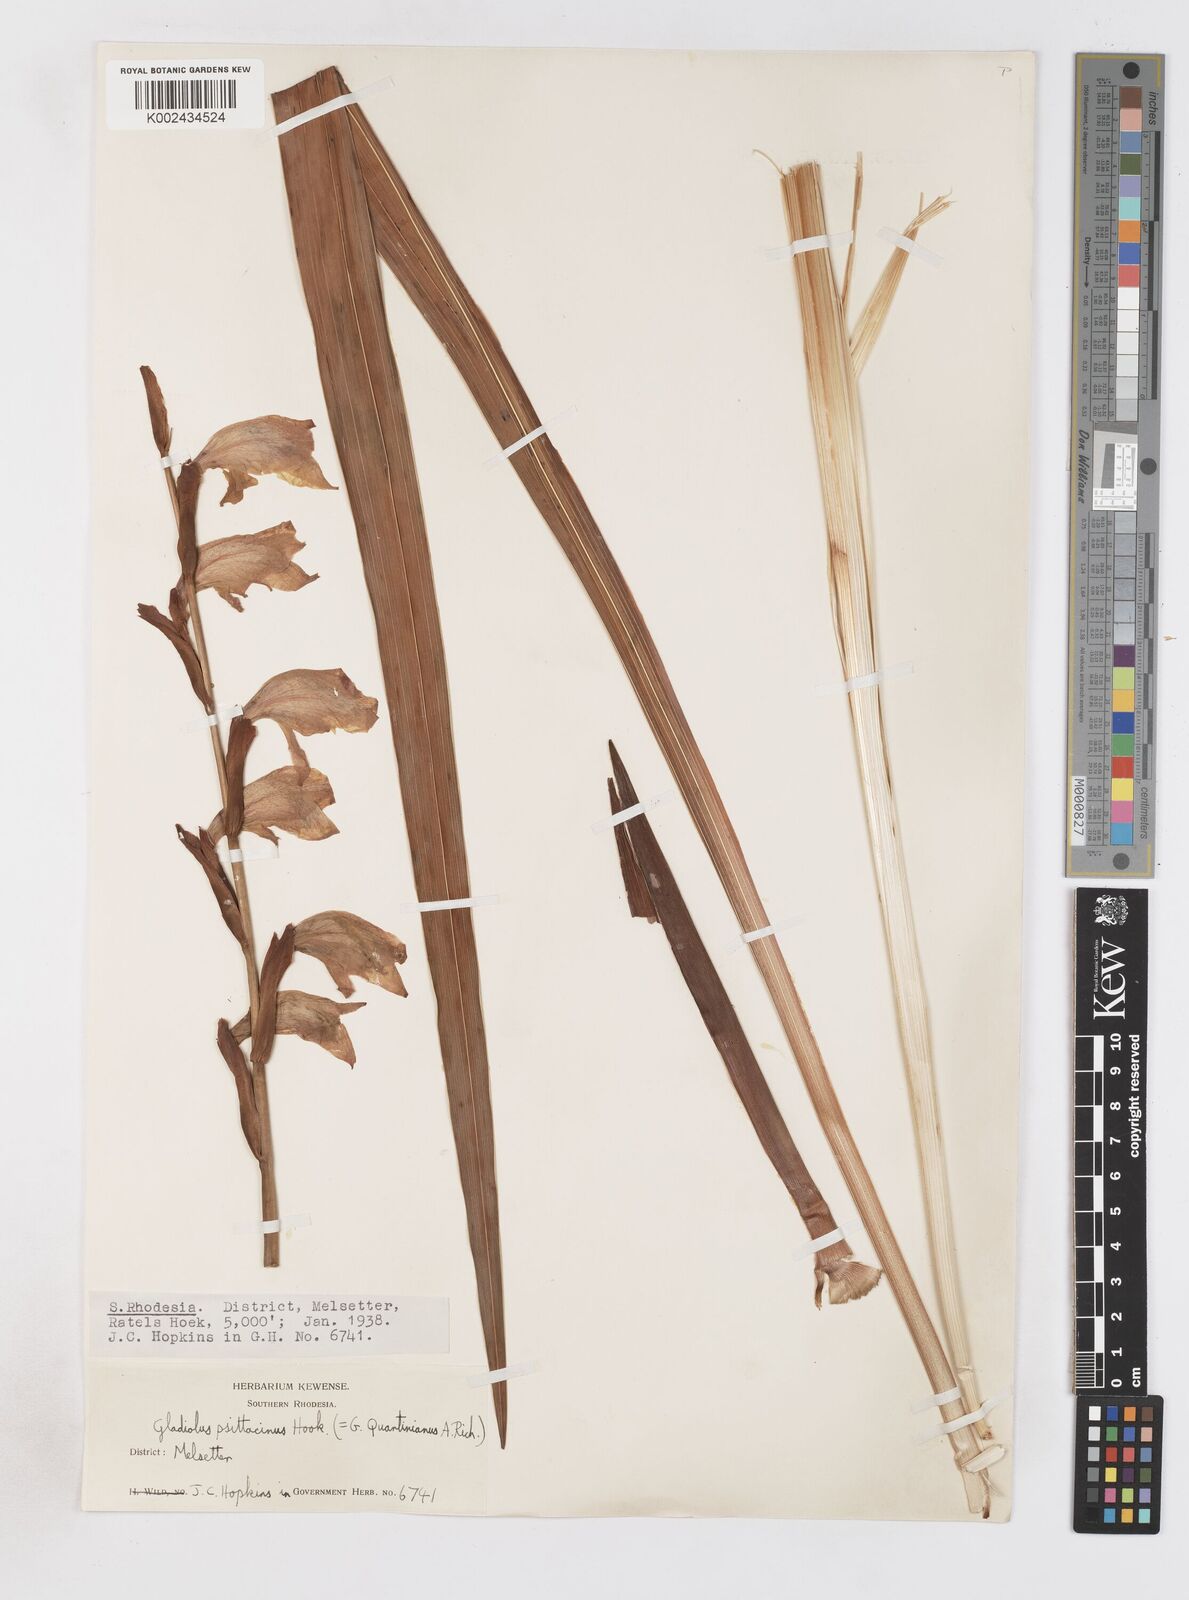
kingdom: Plantae
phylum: Tracheophyta
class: Liliopsida
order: Asparagales
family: Iridaceae
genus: Gladiolus
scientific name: Gladiolus dalenii
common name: Cornflag
